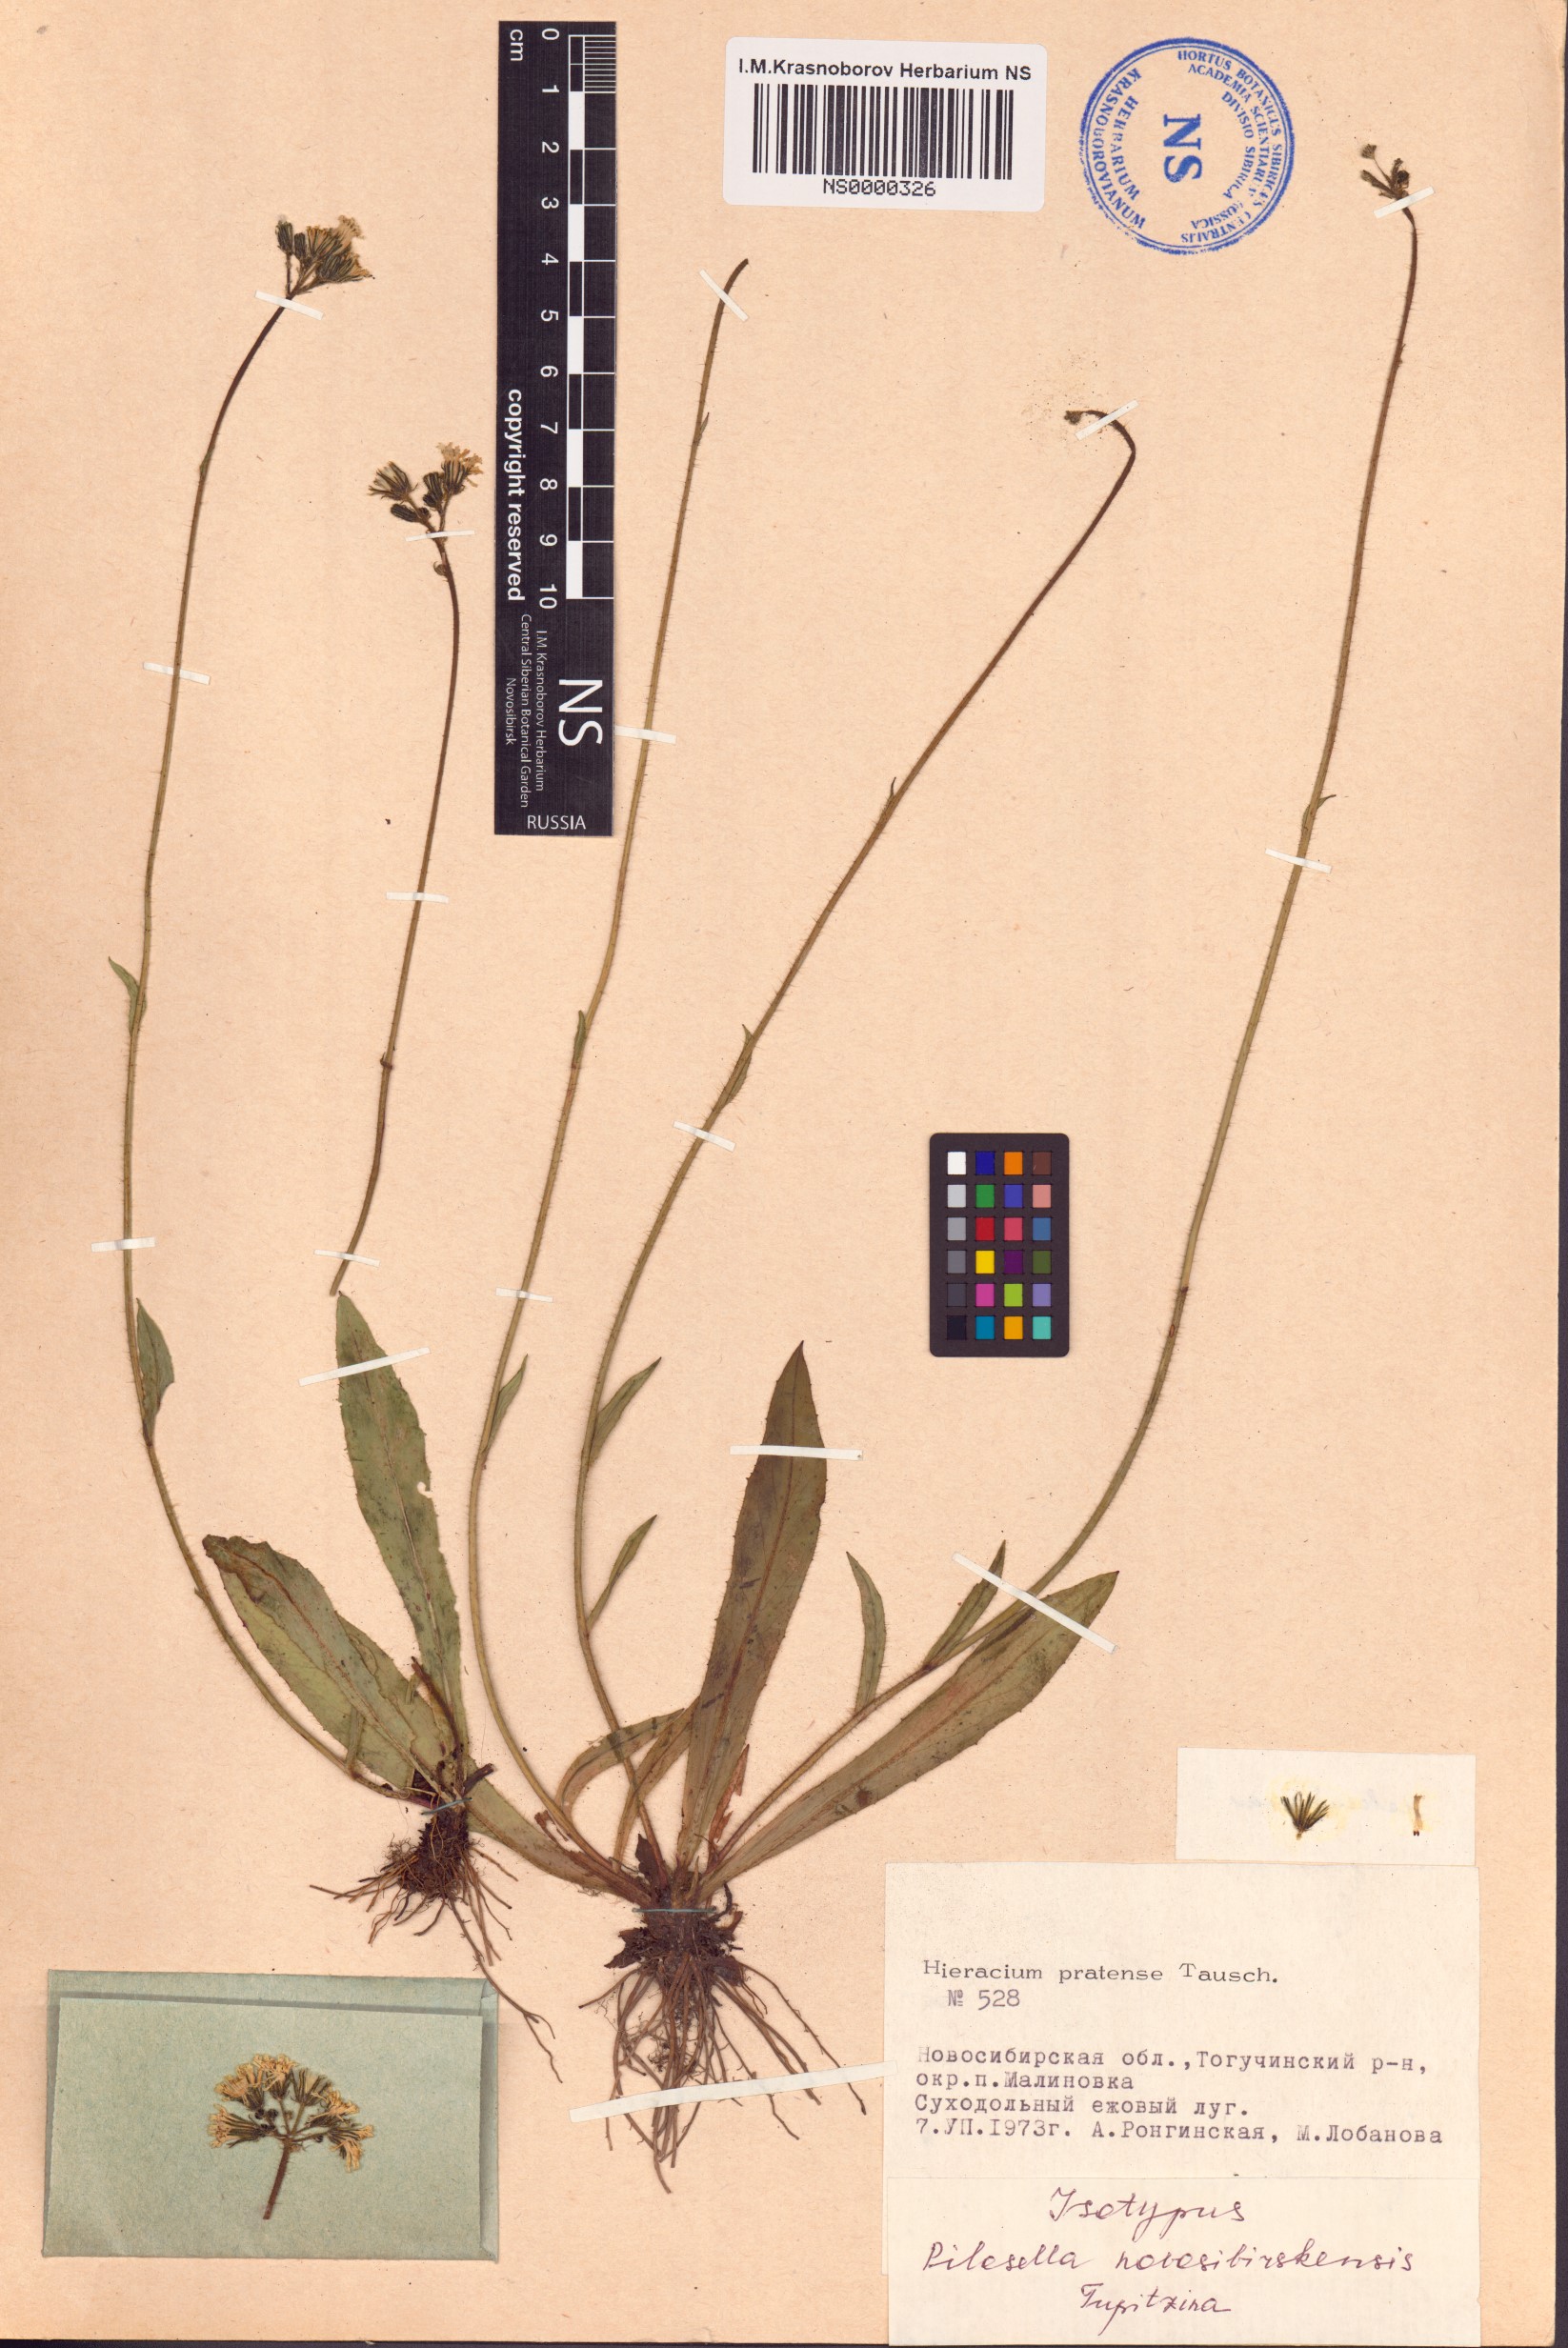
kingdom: Plantae
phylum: Tracheophyta
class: Magnoliopsida
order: Asterales
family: Asteraceae
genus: Pilosella
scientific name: Pilosella novosibirskensis
